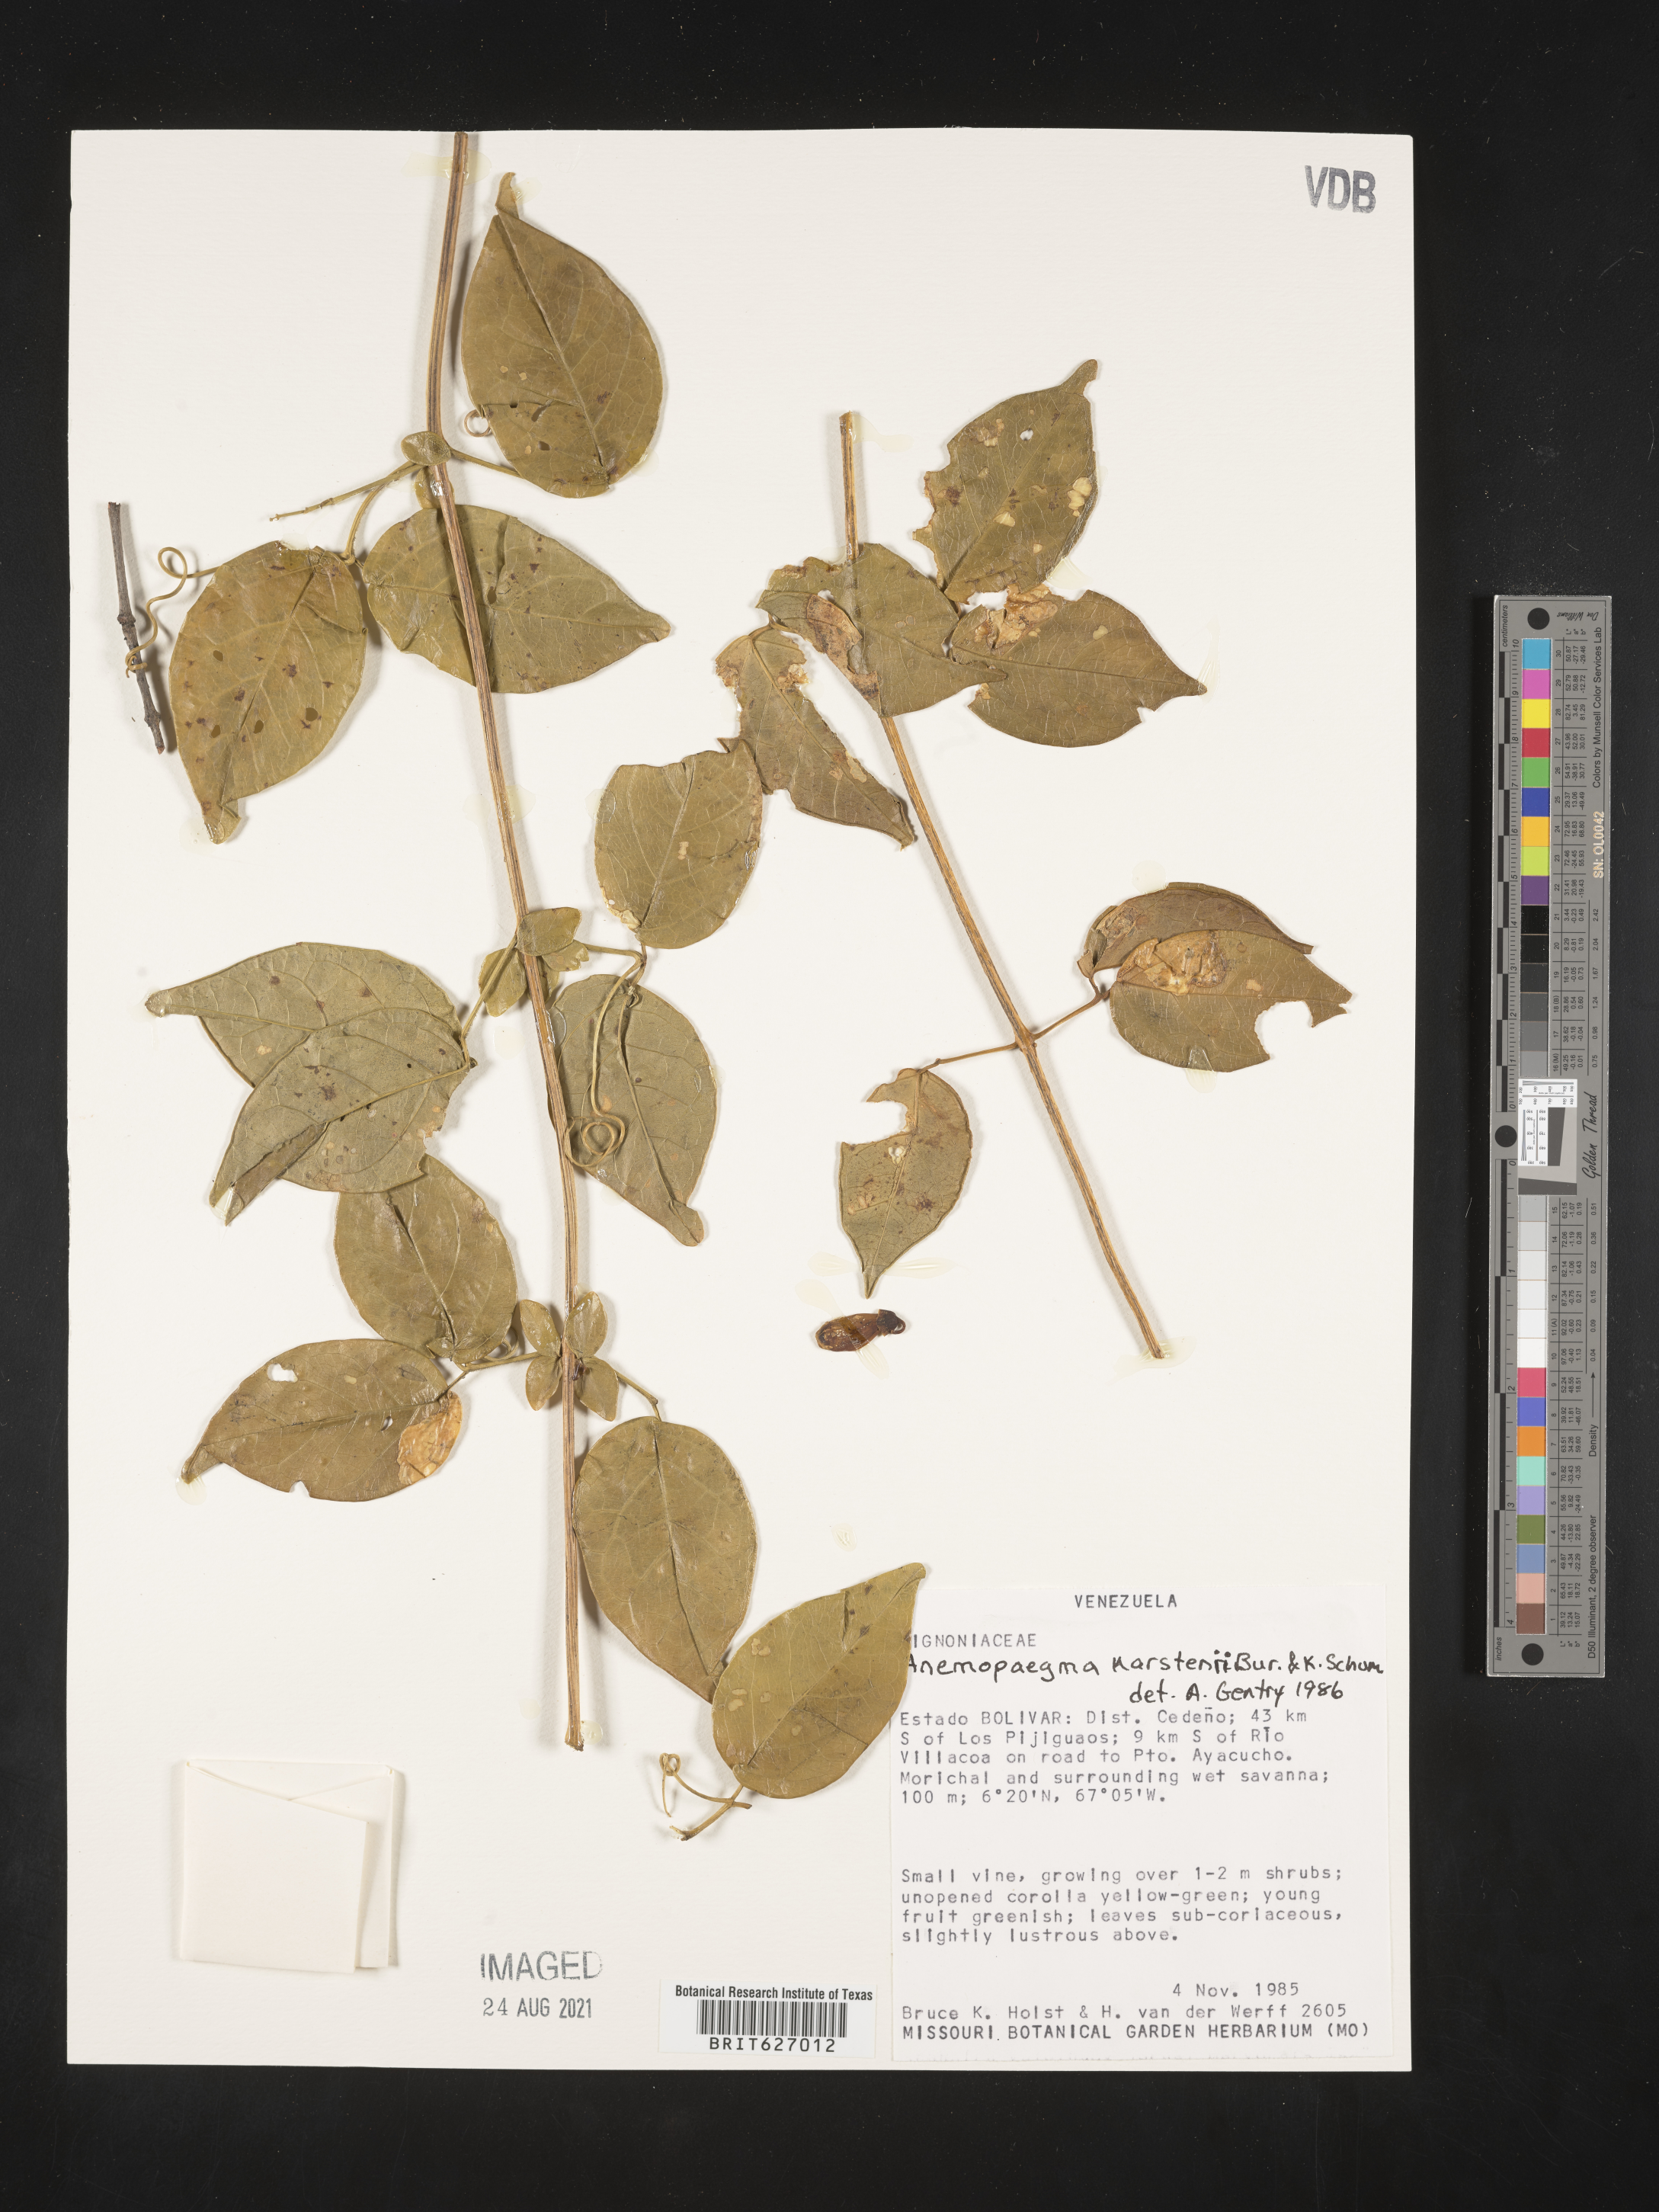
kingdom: Plantae
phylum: Tracheophyta
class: Magnoliopsida
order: Lamiales
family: Bignoniaceae
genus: Anemopaegma
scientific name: Anemopaegma karstenii
